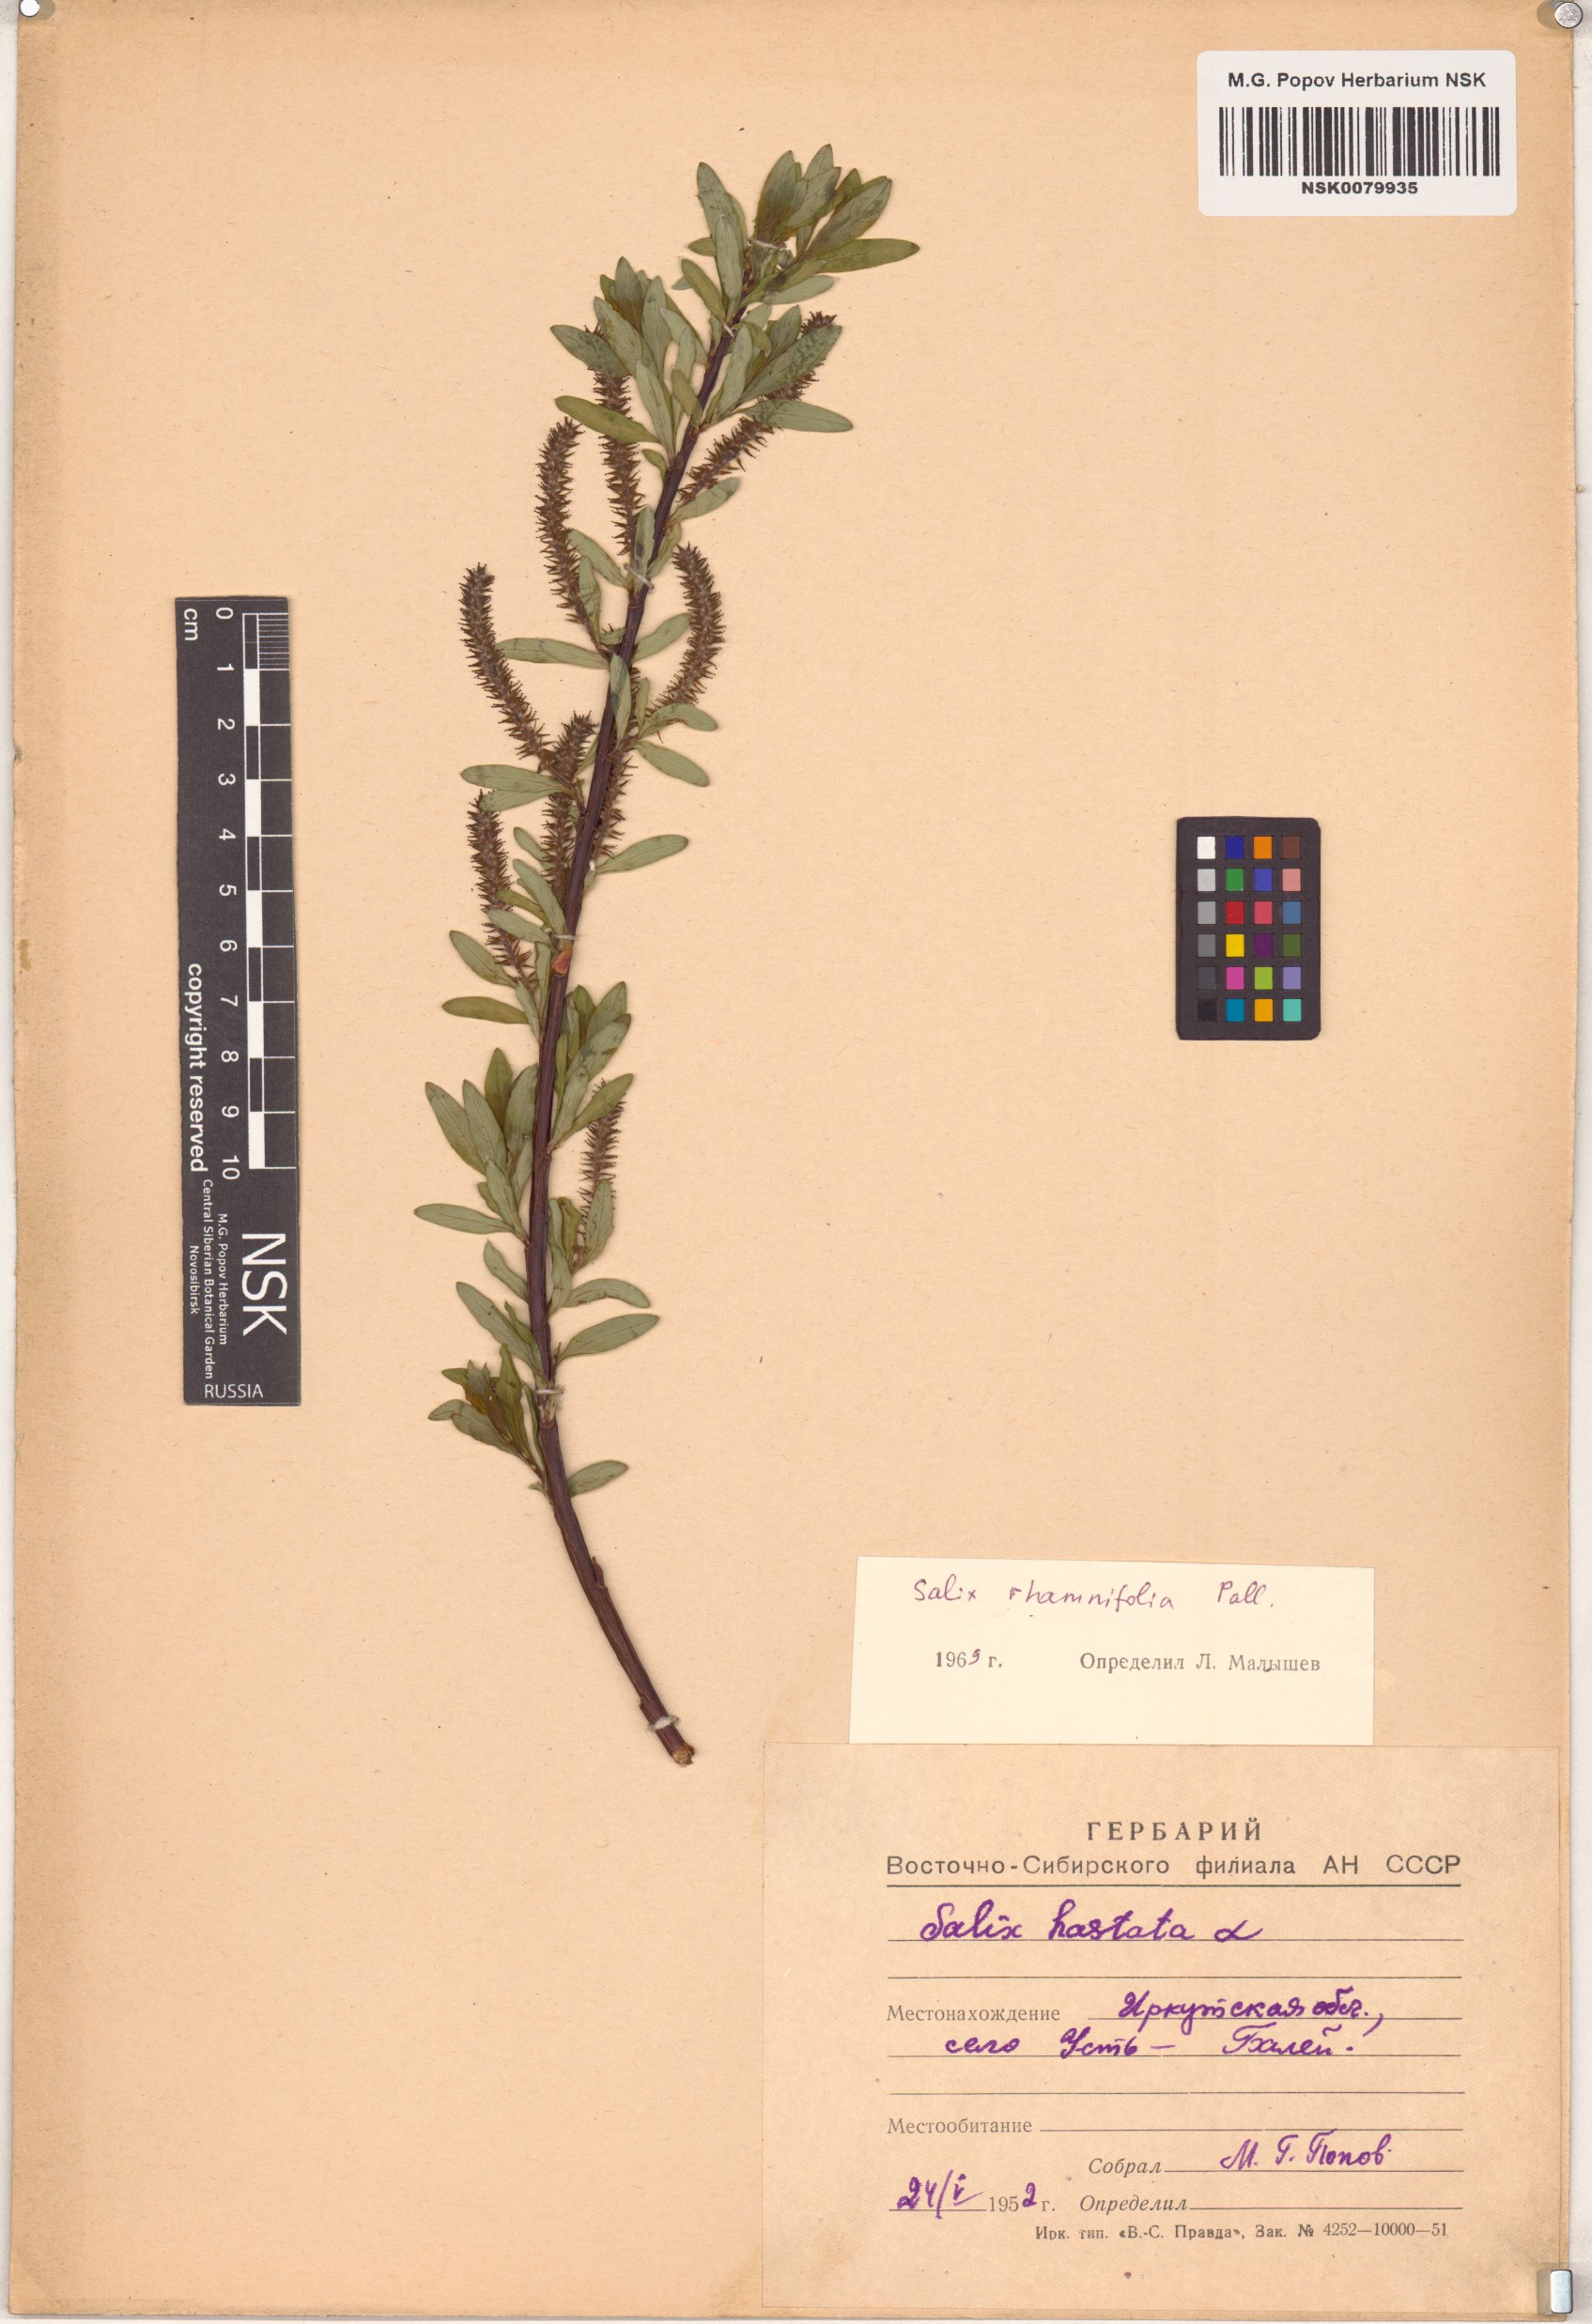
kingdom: Plantae
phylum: Tracheophyta
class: Magnoliopsida
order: Malpighiales
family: Salicaceae
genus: Salix
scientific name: Salix rhamnifolia
